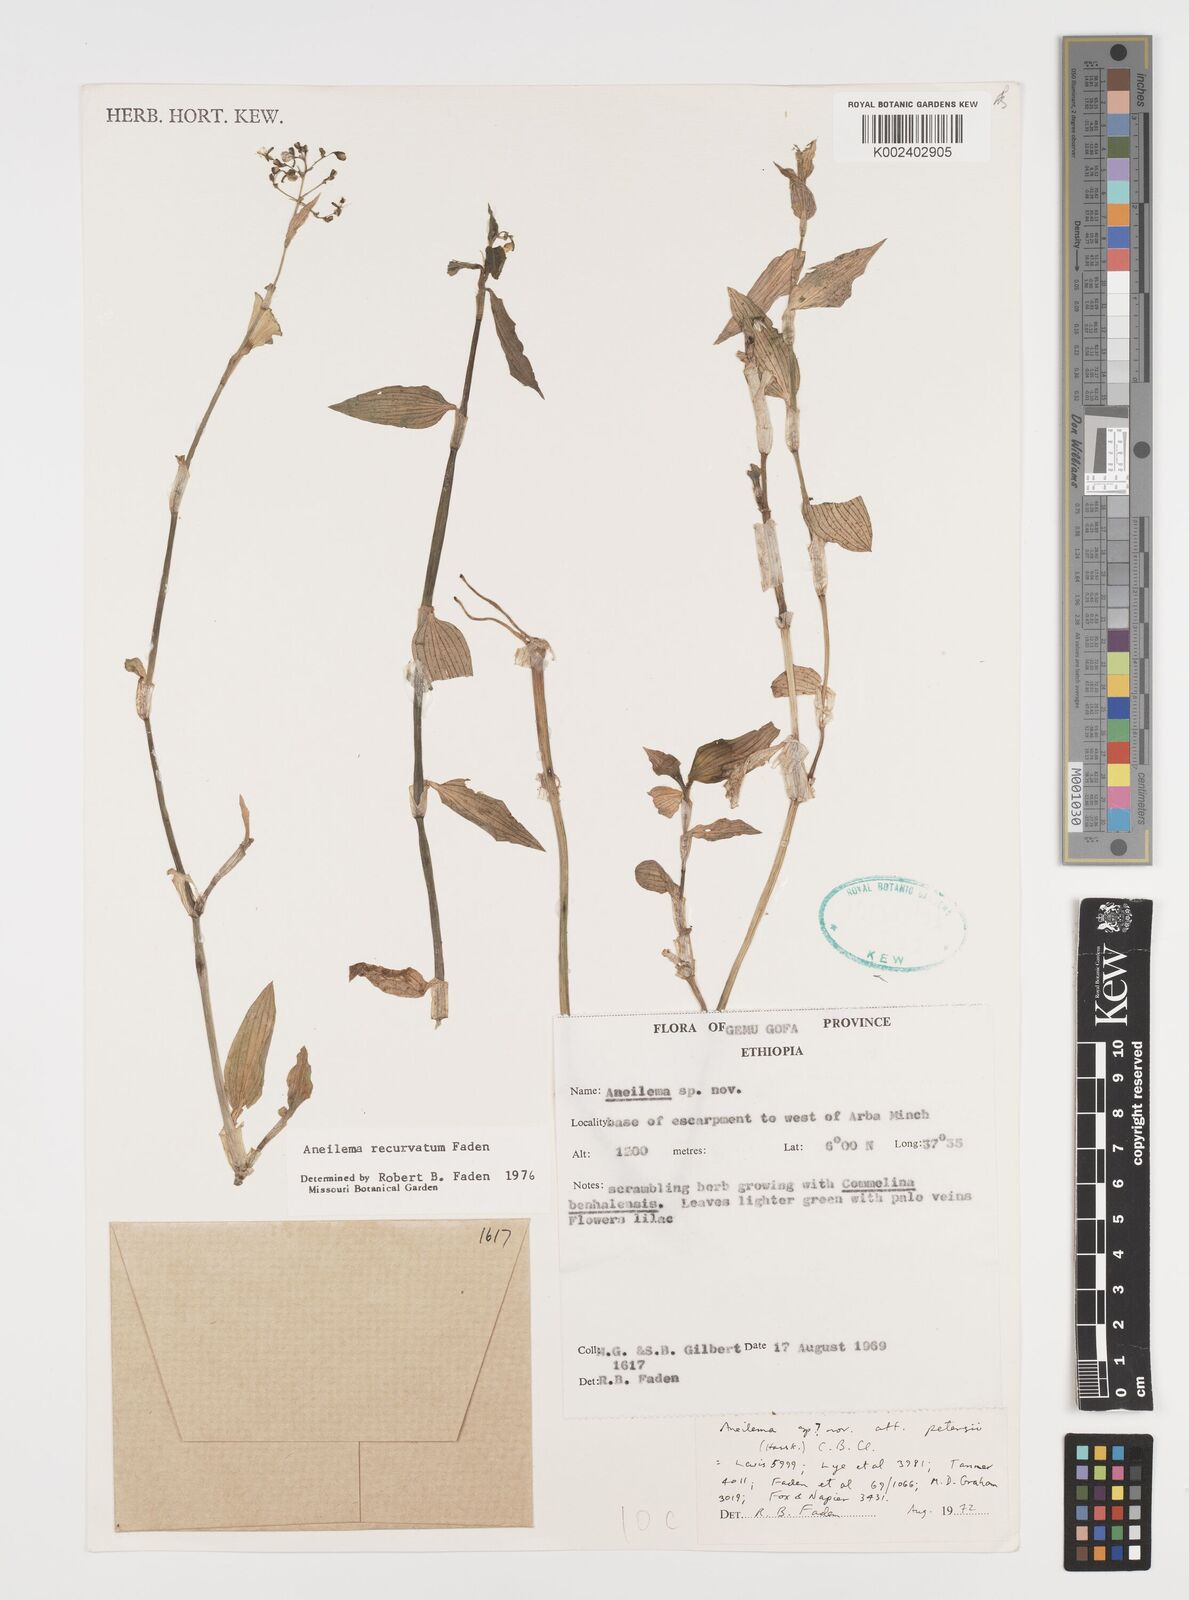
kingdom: Plantae
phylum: Tracheophyta
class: Liliopsida
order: Commelinales
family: Commelinaceae
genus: Aneilema
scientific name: Aneilema recurvatum
